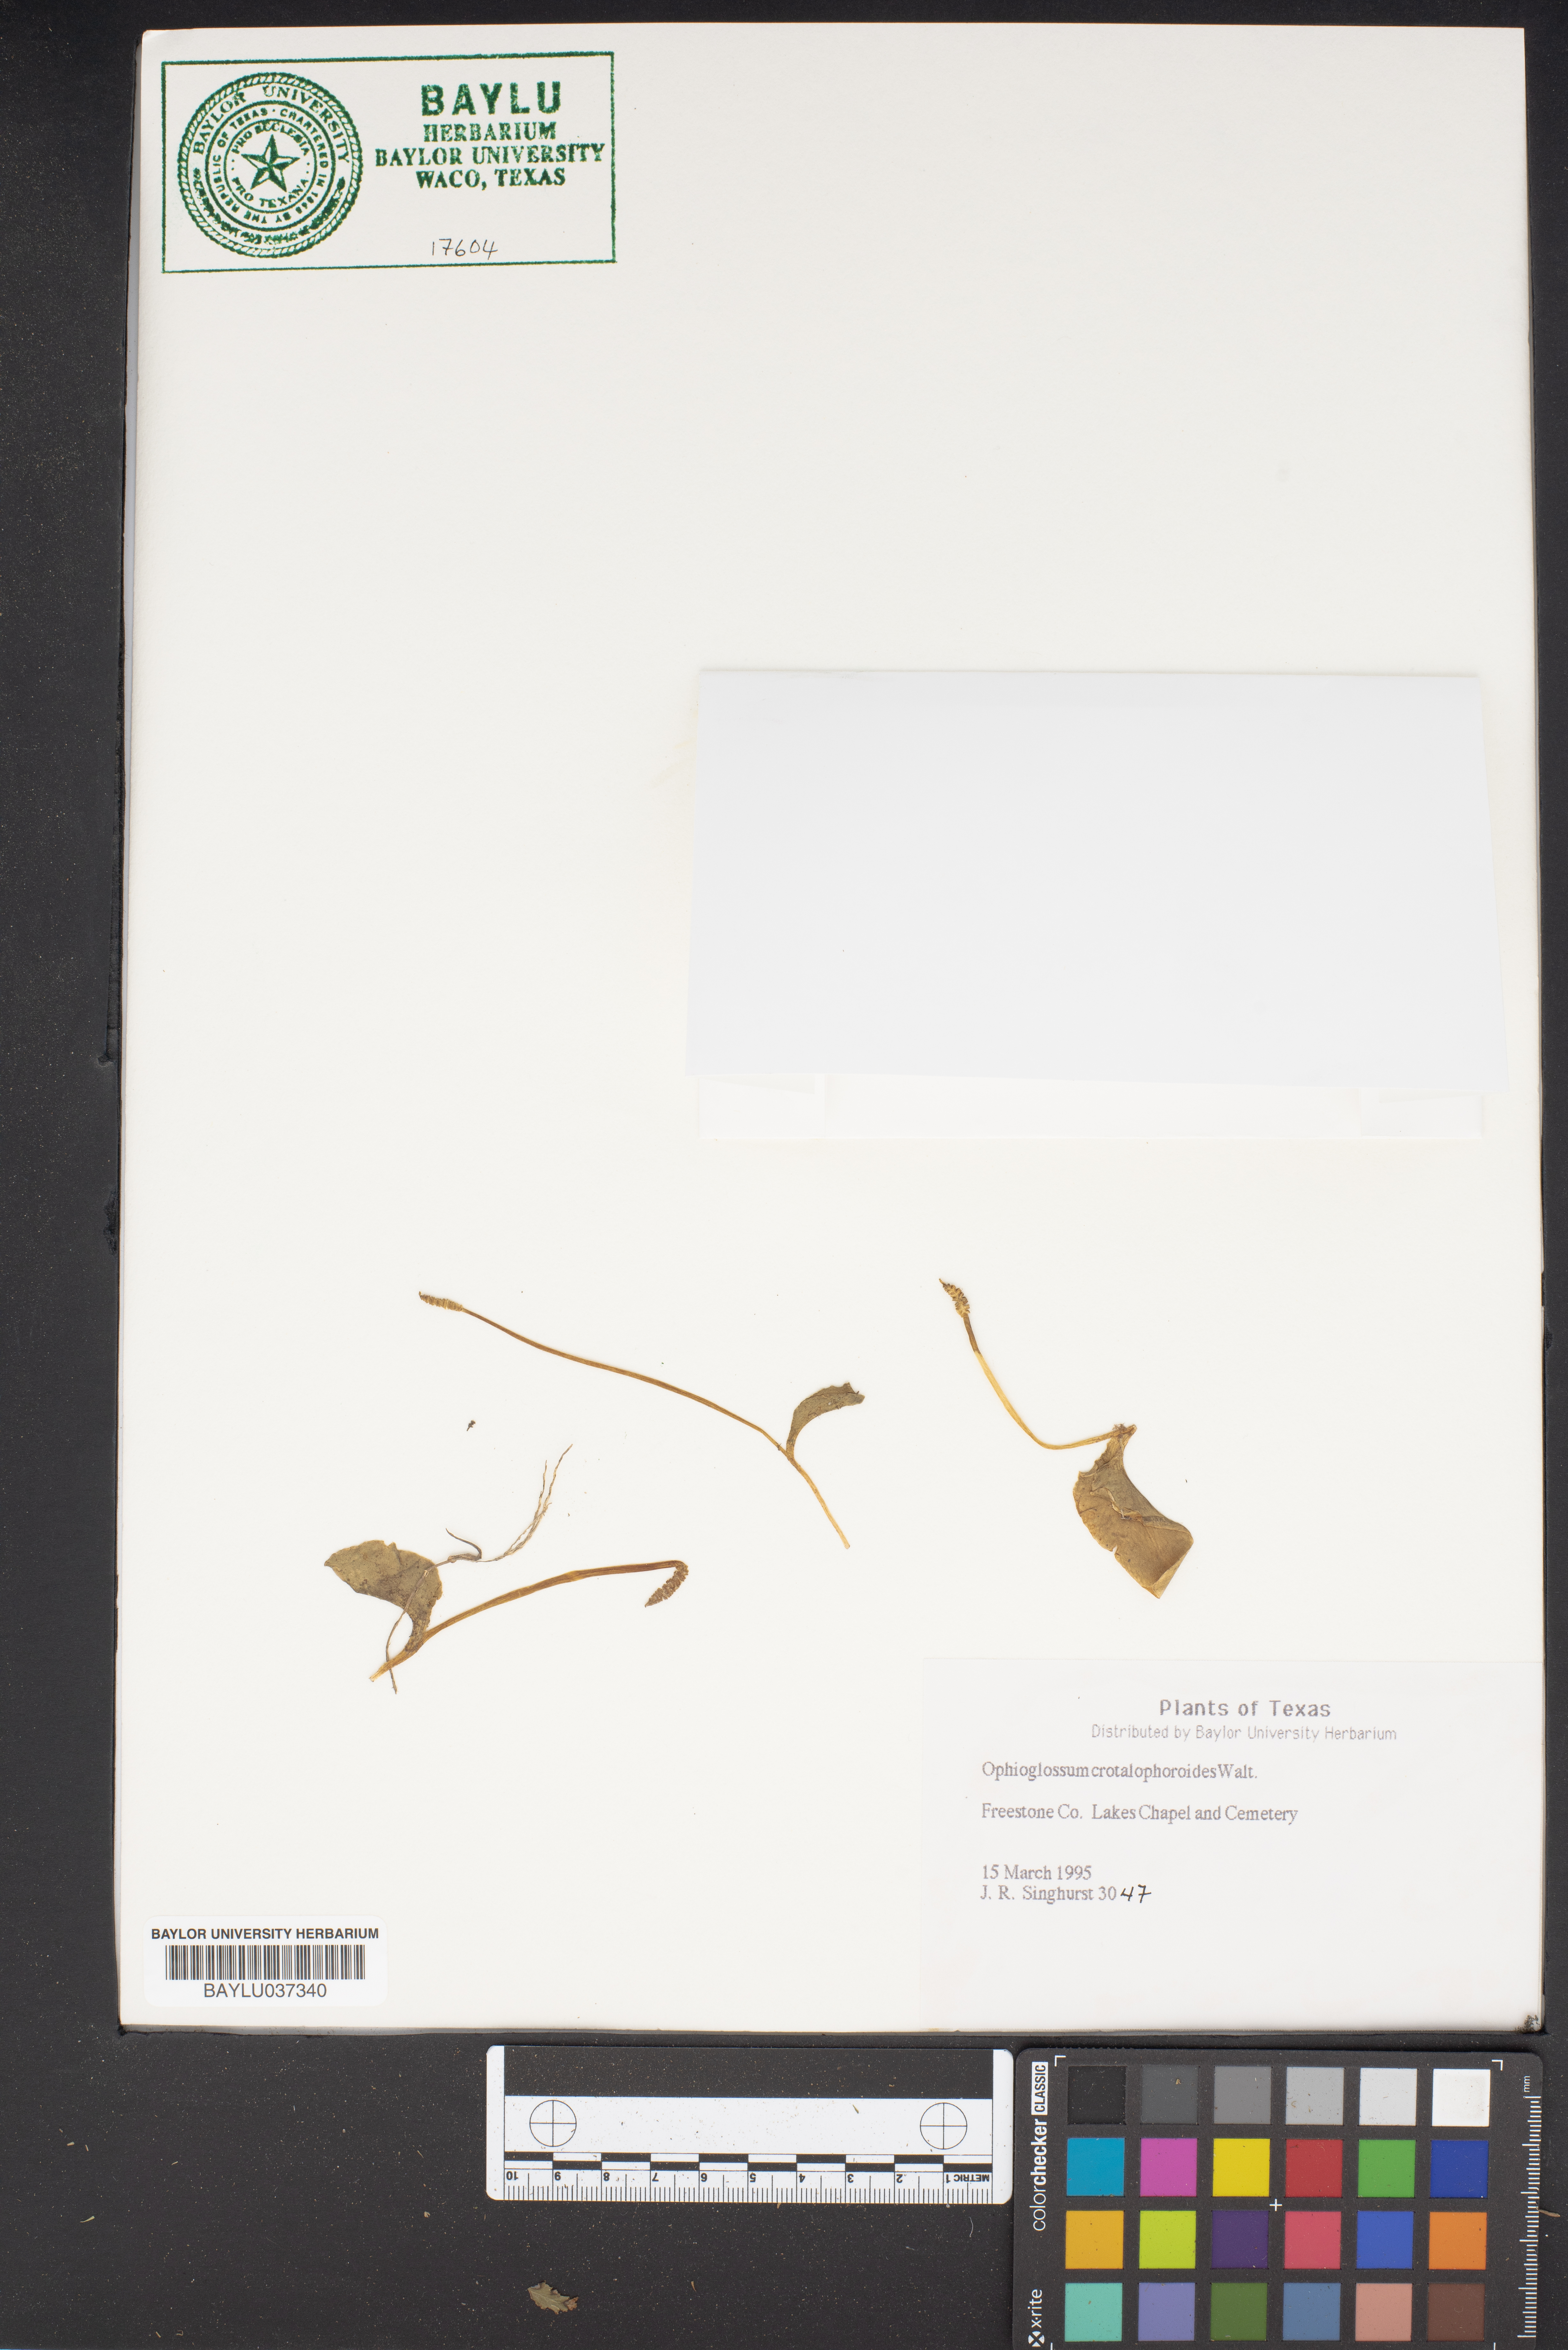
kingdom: Plantae
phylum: Tracheophyta
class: Polypodiopsida
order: Ophioglossales
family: Ophioglossaceae
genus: Ophioglossum
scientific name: Ophioglossum crotalophoroides
